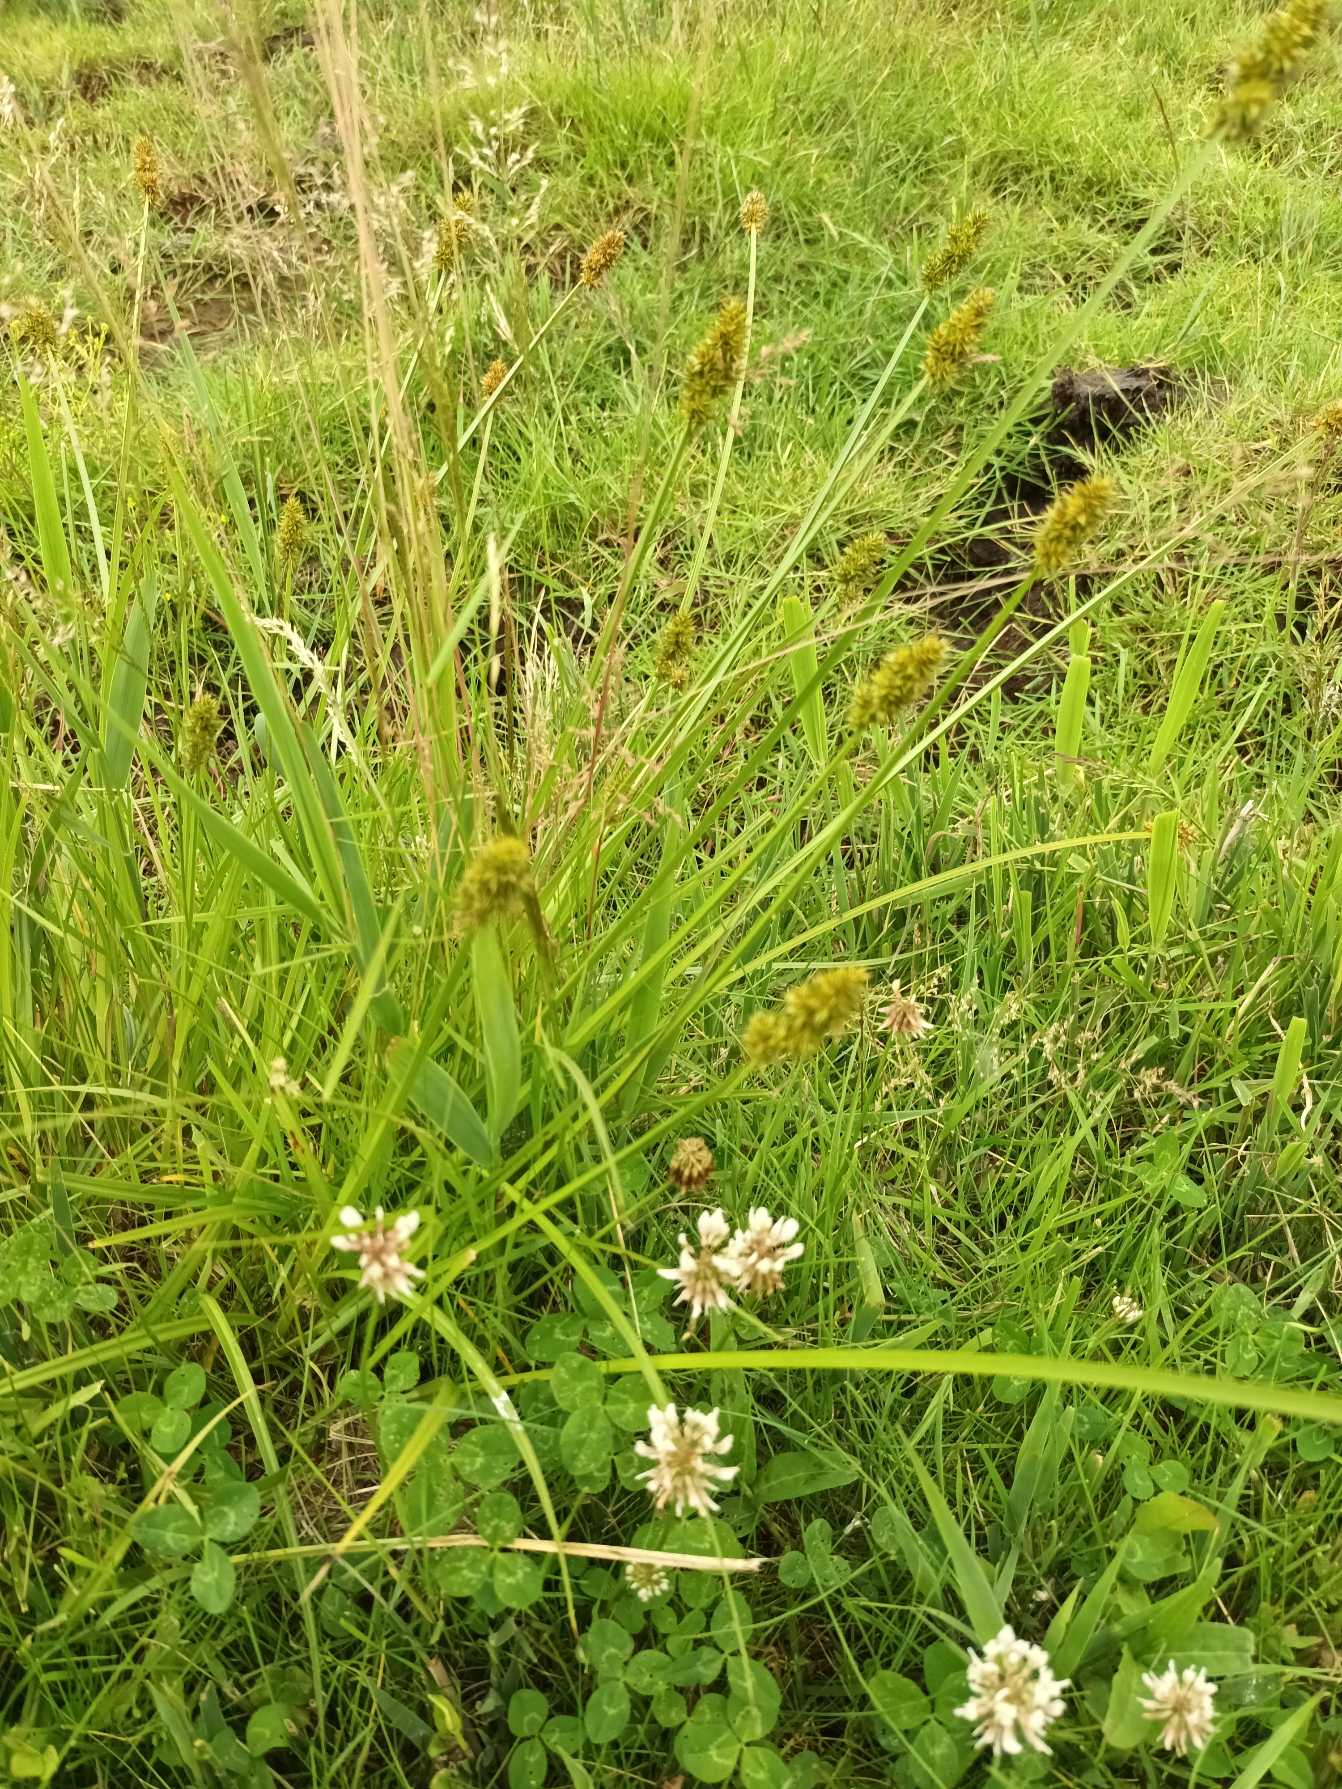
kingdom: Plantae
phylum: Tracheophyta
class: Liliopsida
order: Poales
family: Cyperaceae
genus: Carex
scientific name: Carex otrubae
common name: Sylt-star
